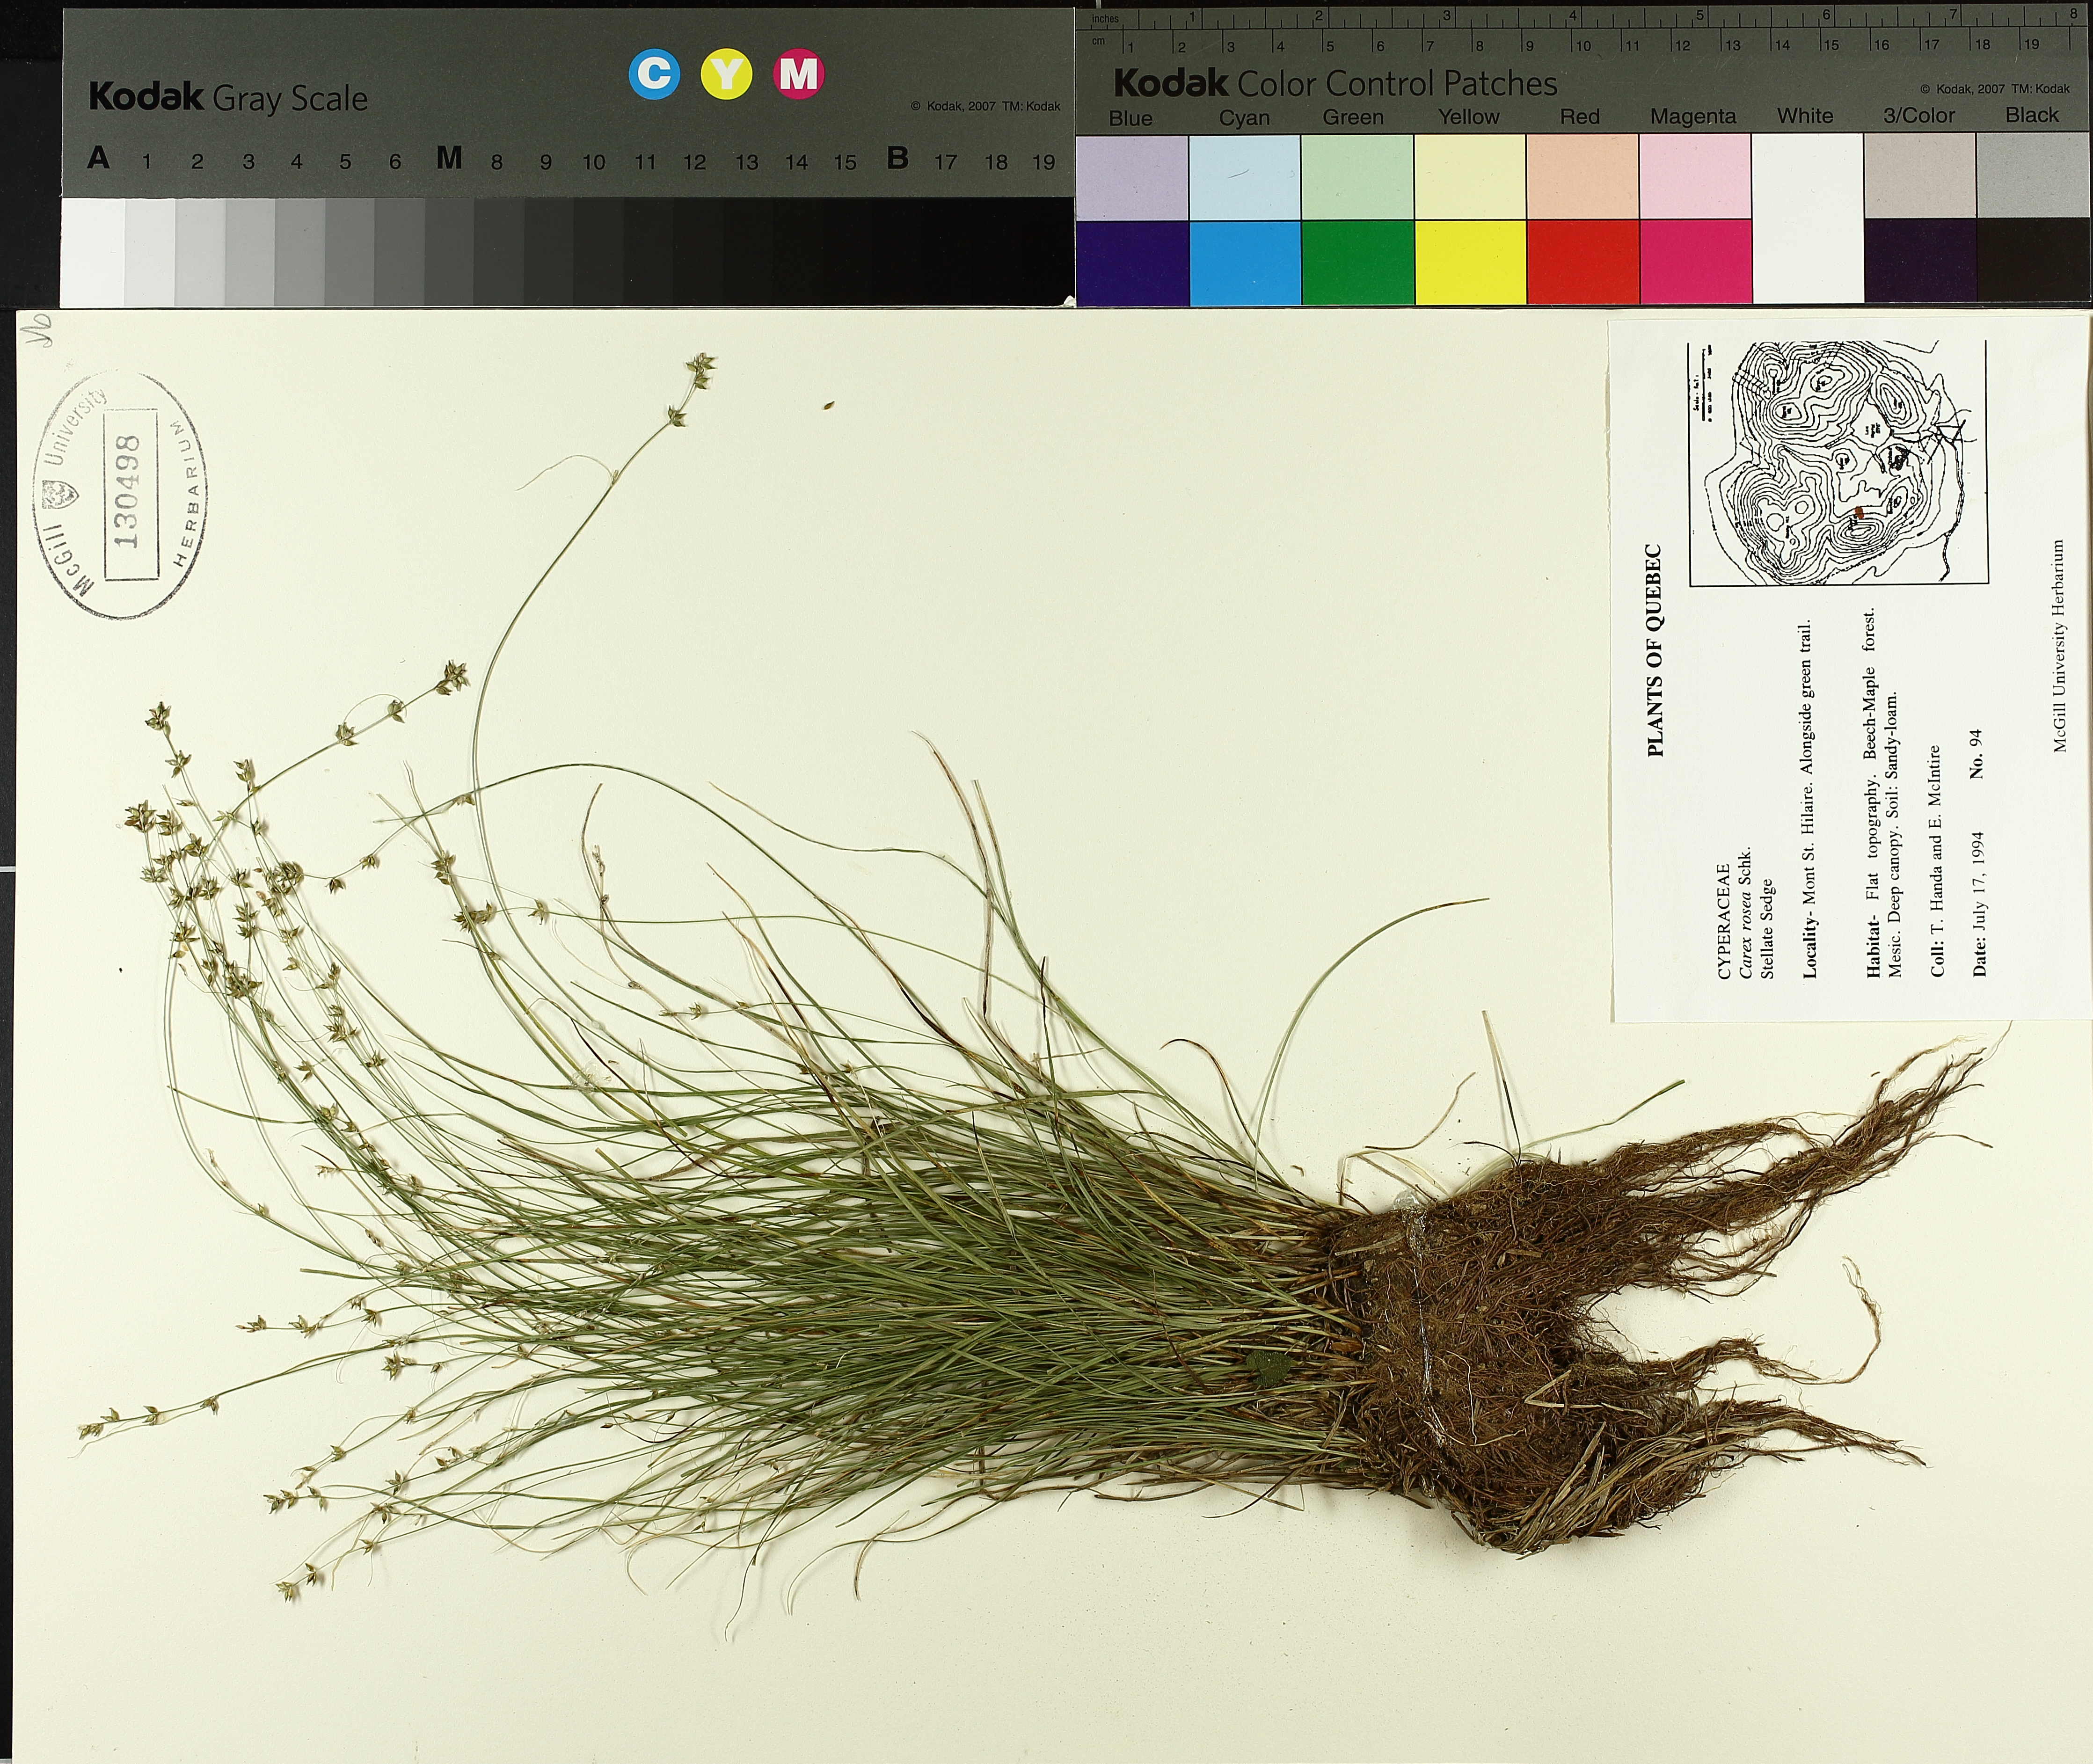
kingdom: Plantae
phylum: Tracheophyta
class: Liliopsida
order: Poales
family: Cyperaceae
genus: Carex
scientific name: Carex rosea
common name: Curly-styled wood sedge
